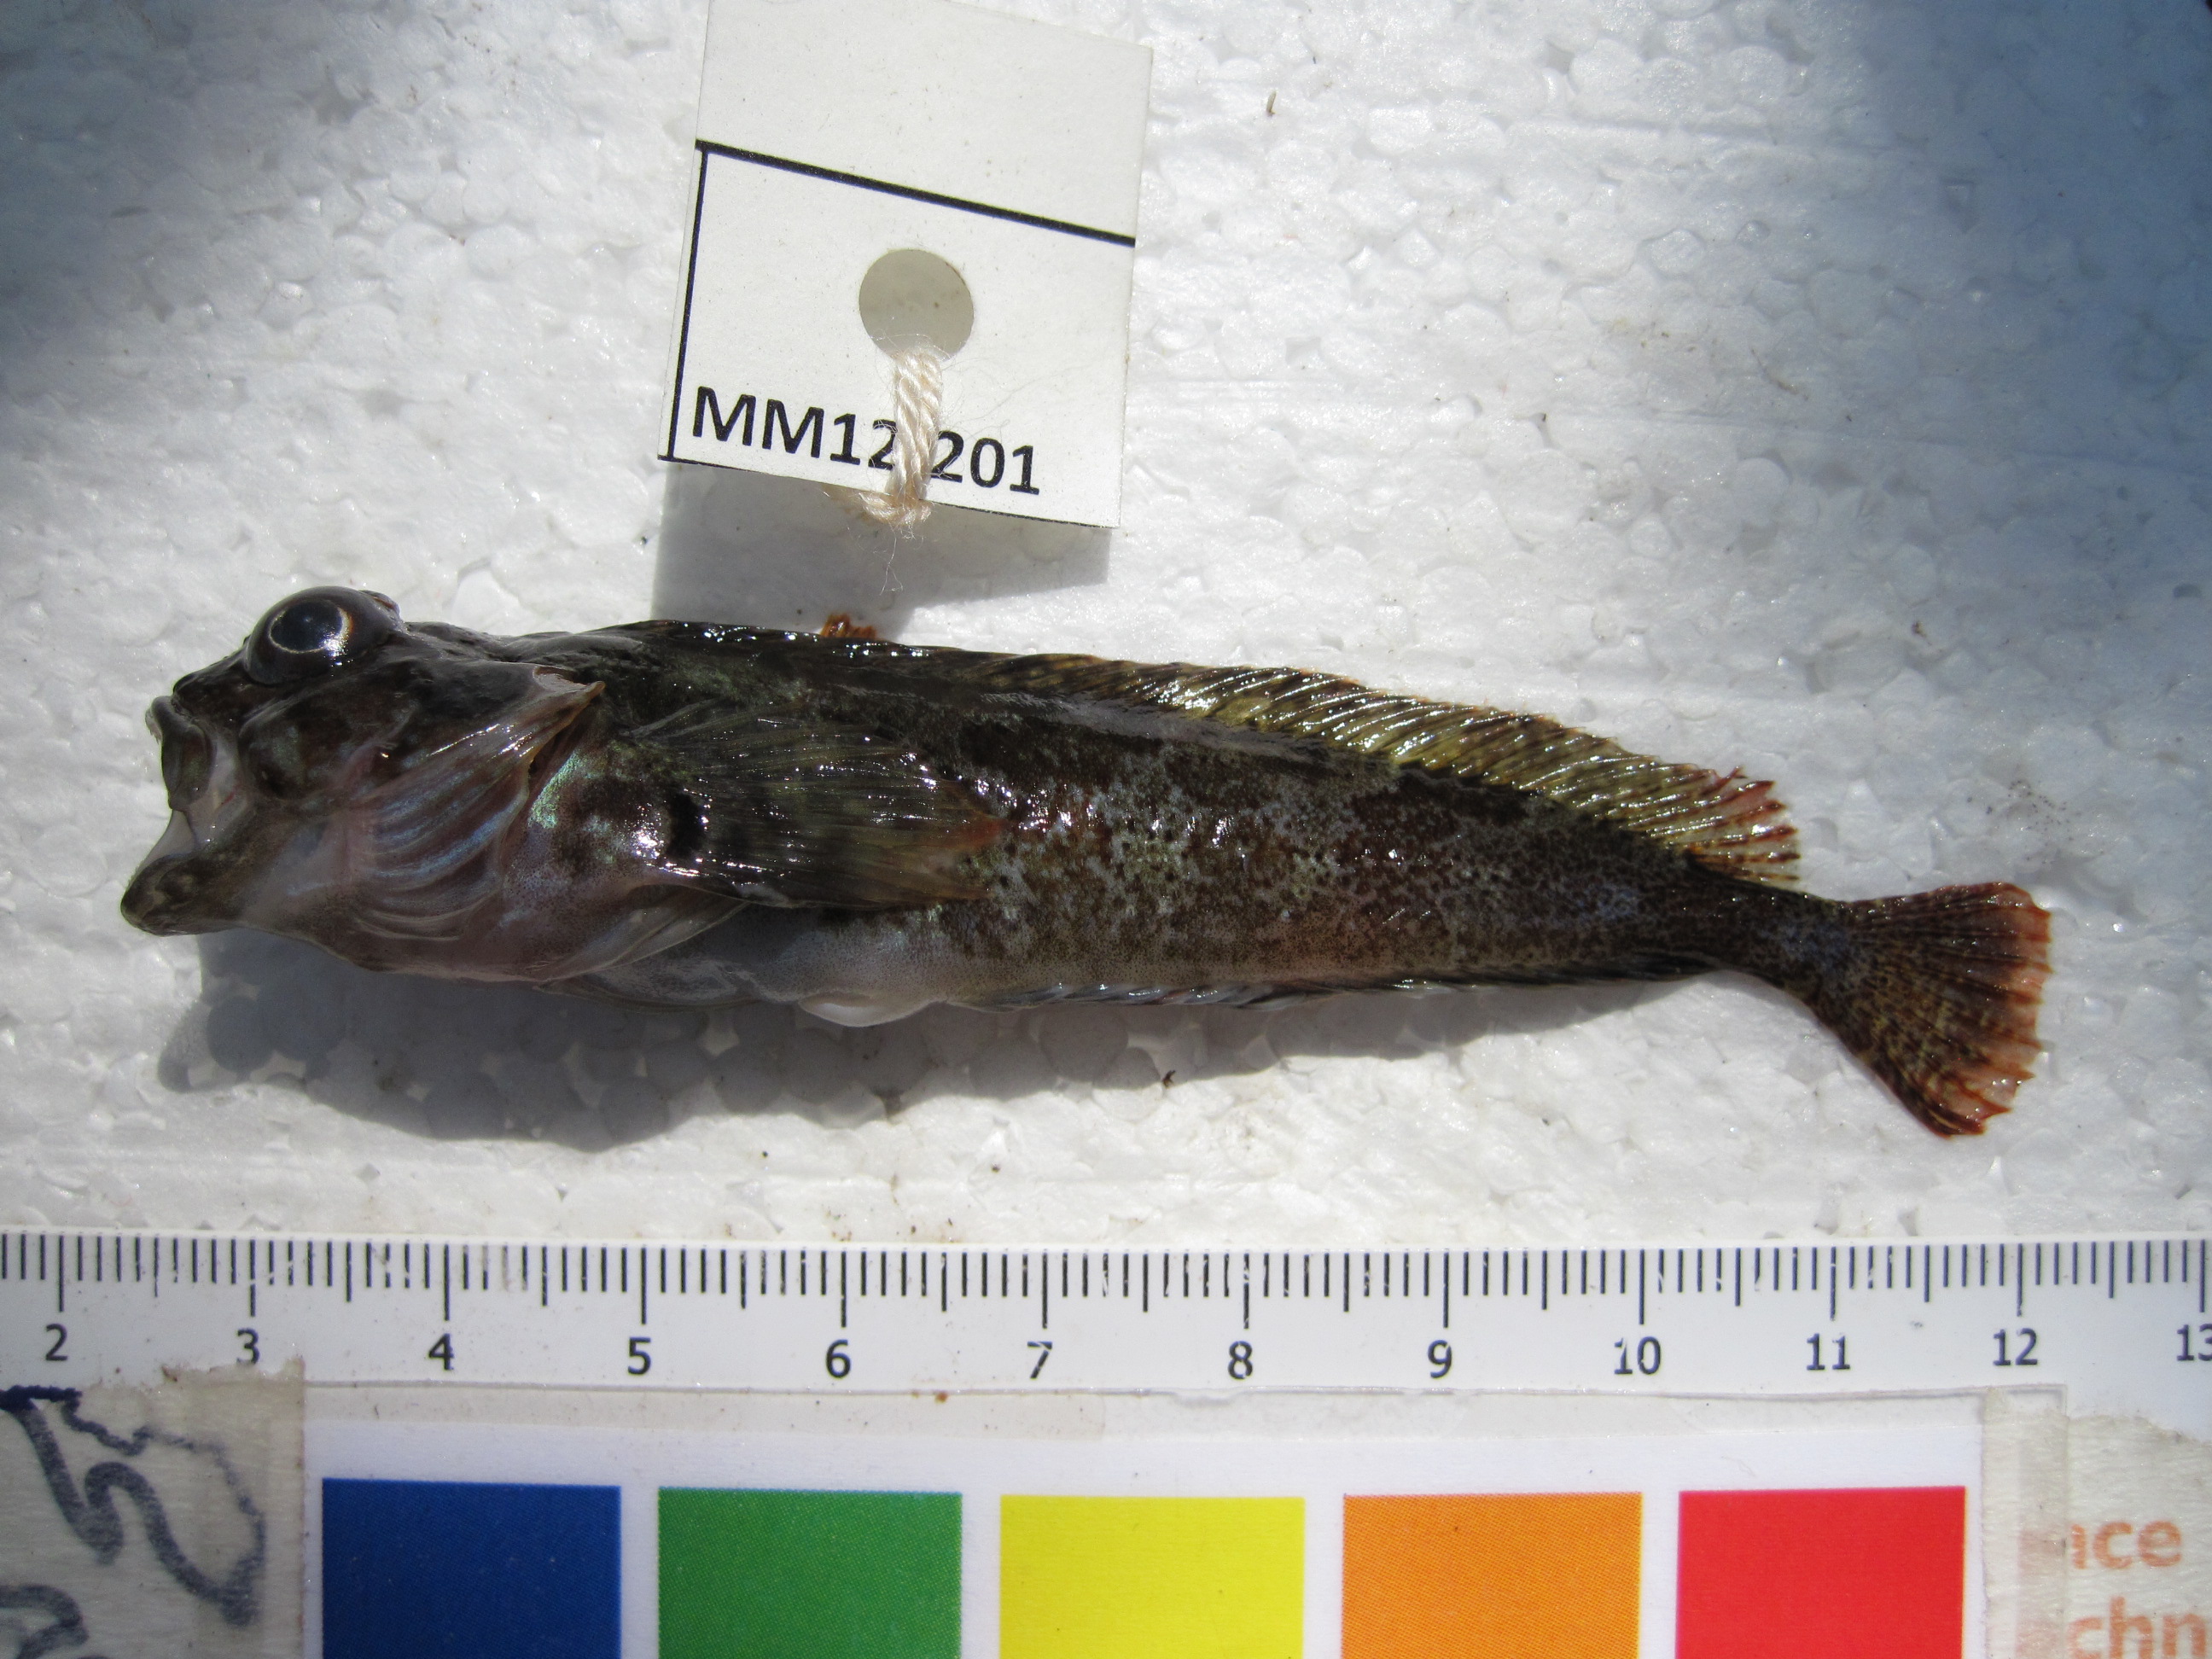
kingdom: Animalia
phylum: Chordata
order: Perciformes
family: Clinidae
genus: Clinus
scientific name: Clinus cottoides
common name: Bluntnose klipfish
